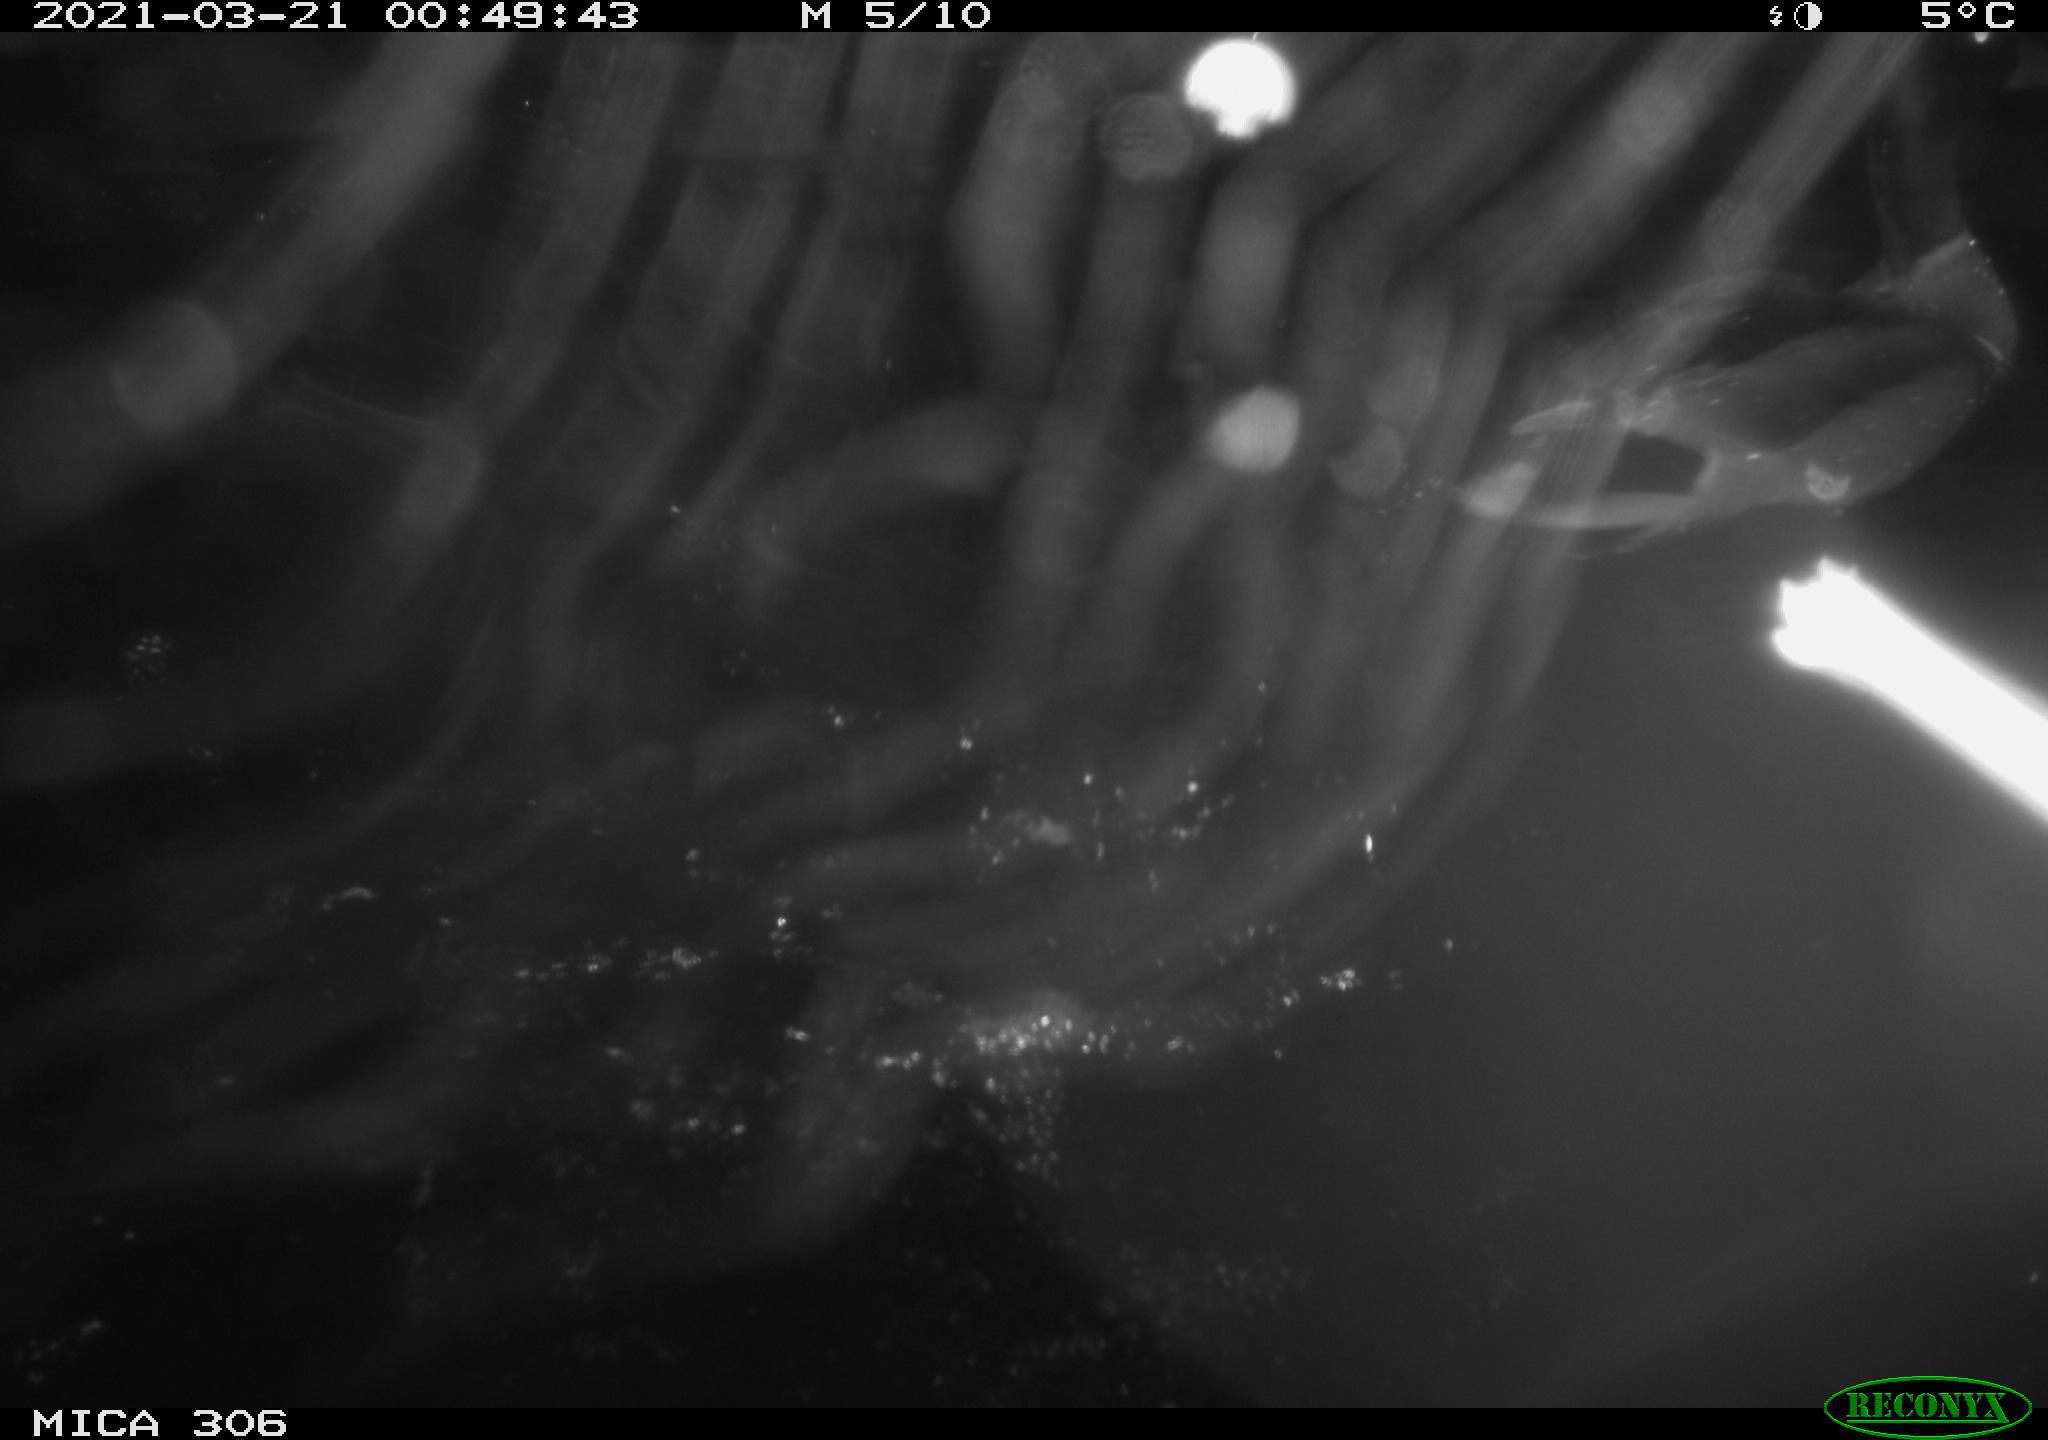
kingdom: Animalia
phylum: Chordata
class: Aves
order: Anseriformes
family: Anatidae
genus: Anas
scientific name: Anas platyrhynchos
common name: Mallard
